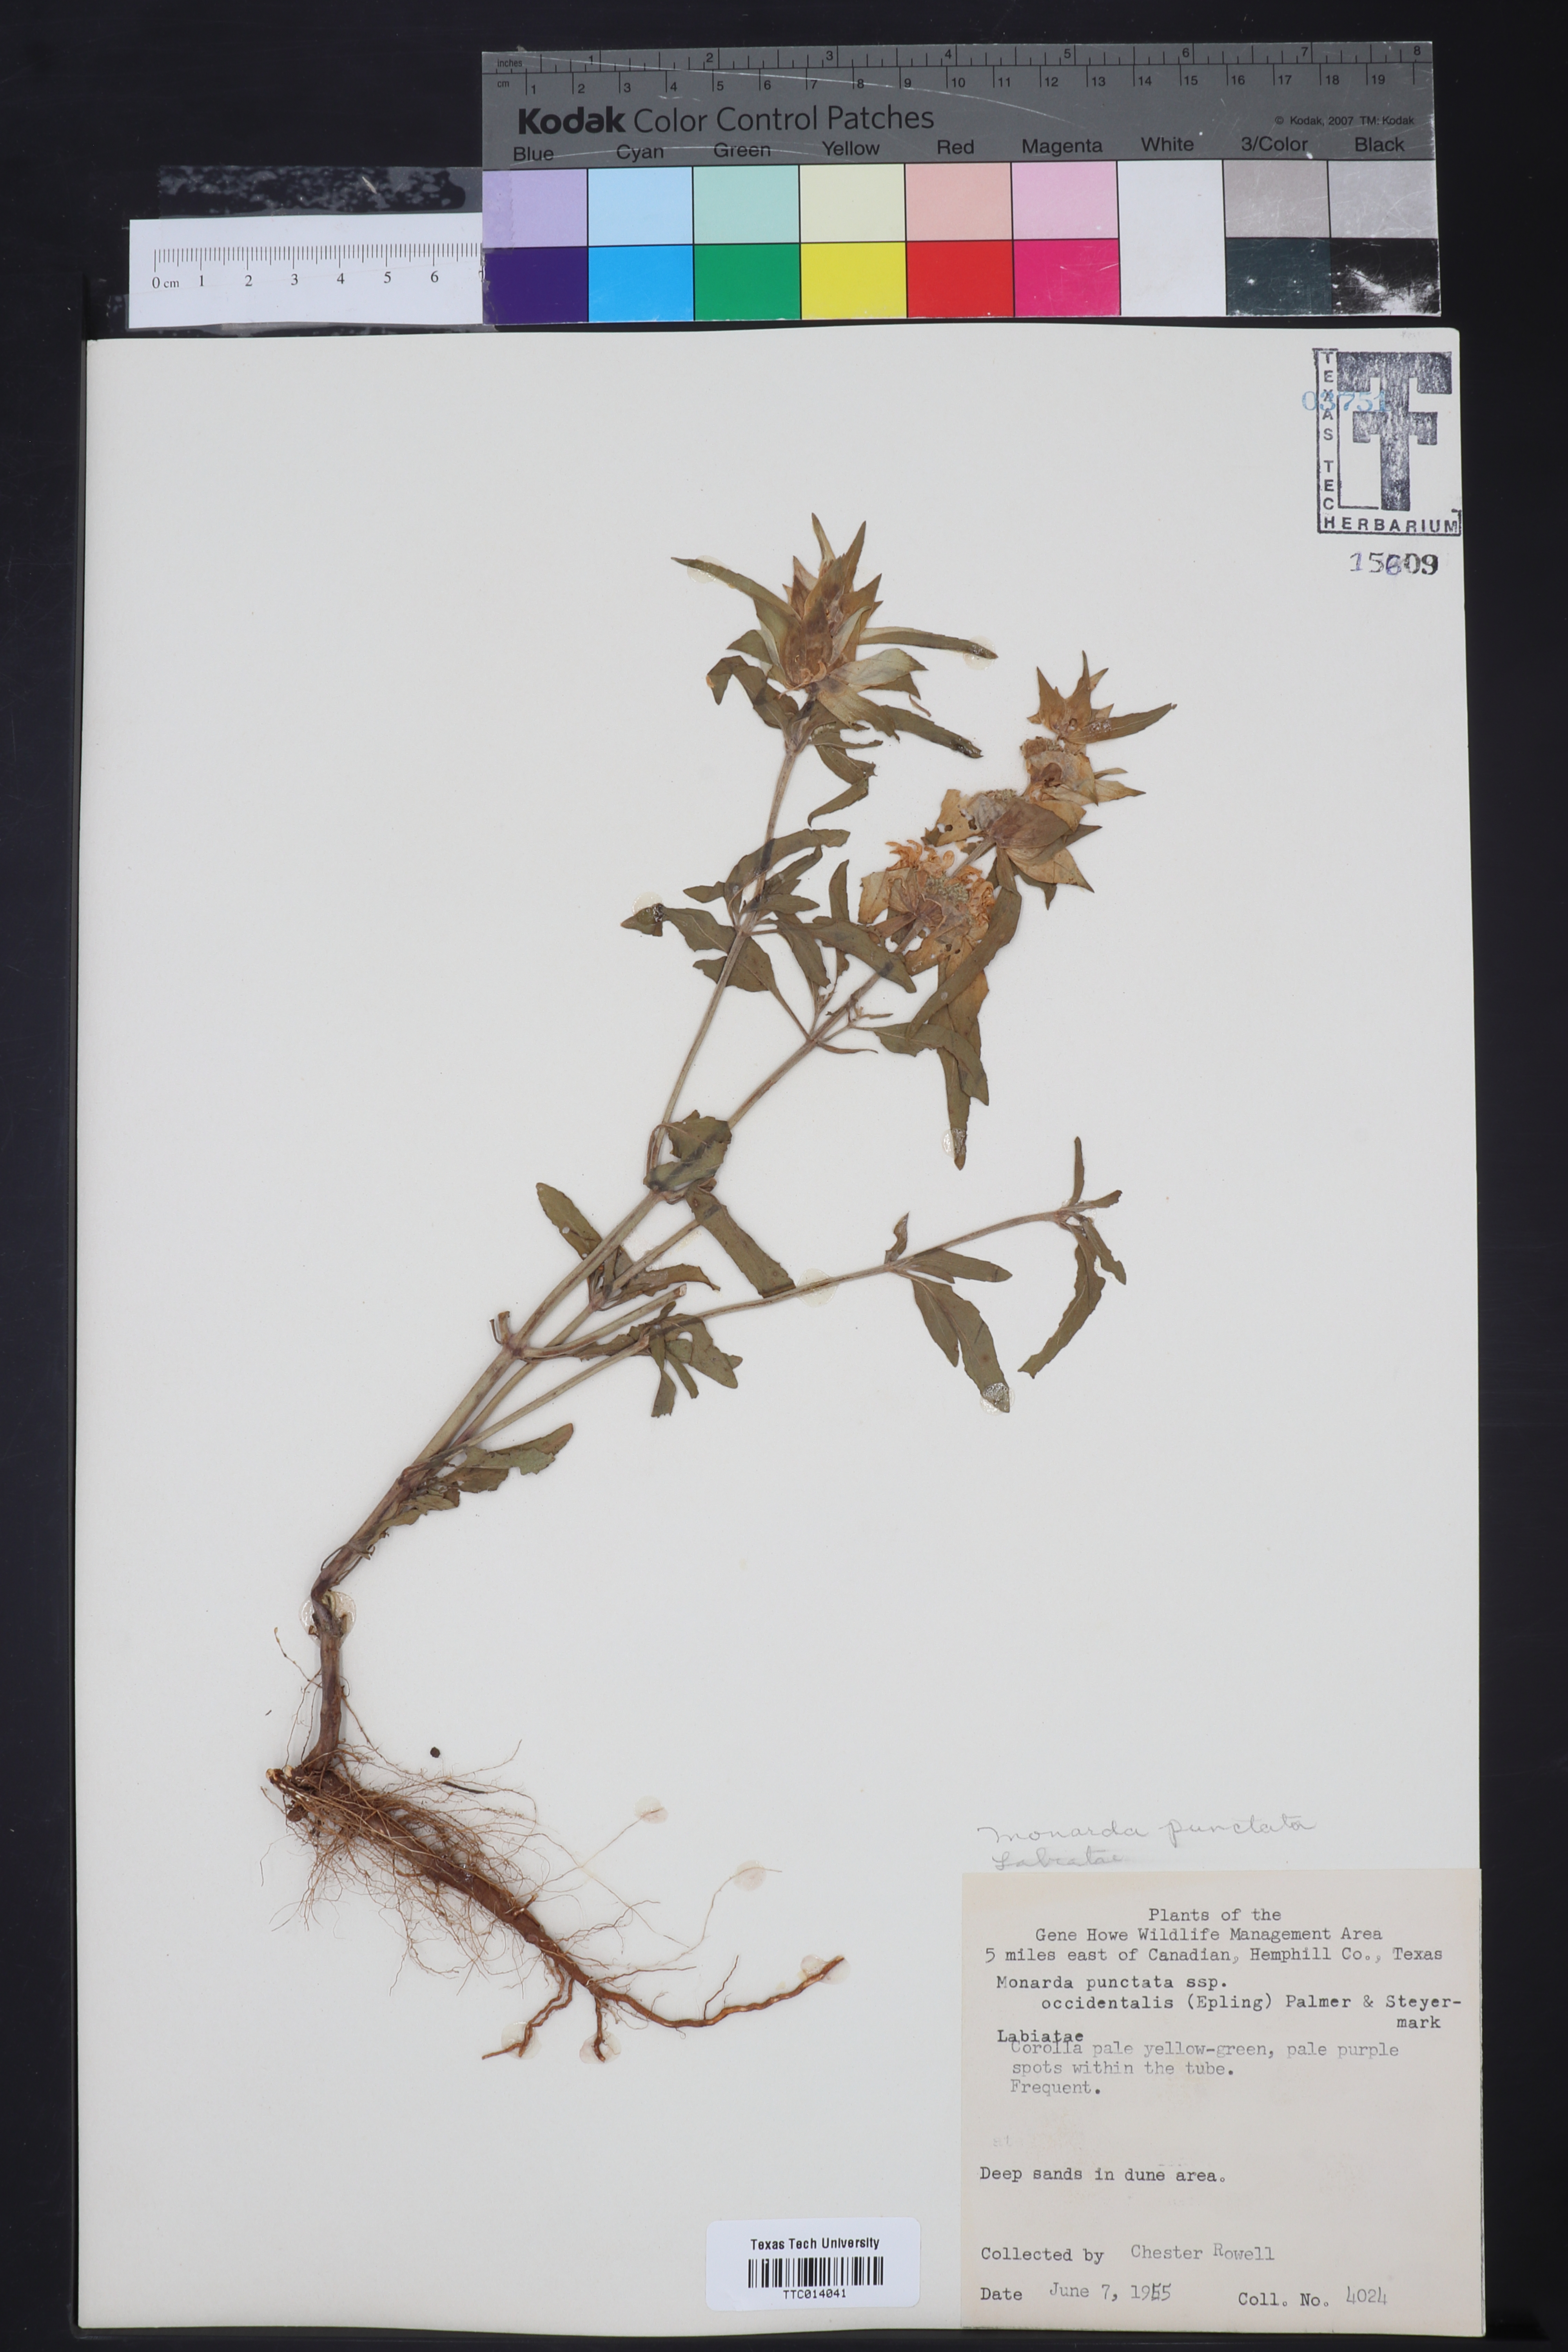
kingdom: Plantae
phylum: Tracheophyta
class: Magnoliopsida
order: Lamiales
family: Lamiaceae
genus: Monarda
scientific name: Monarda punctata
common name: Dotted monarda
